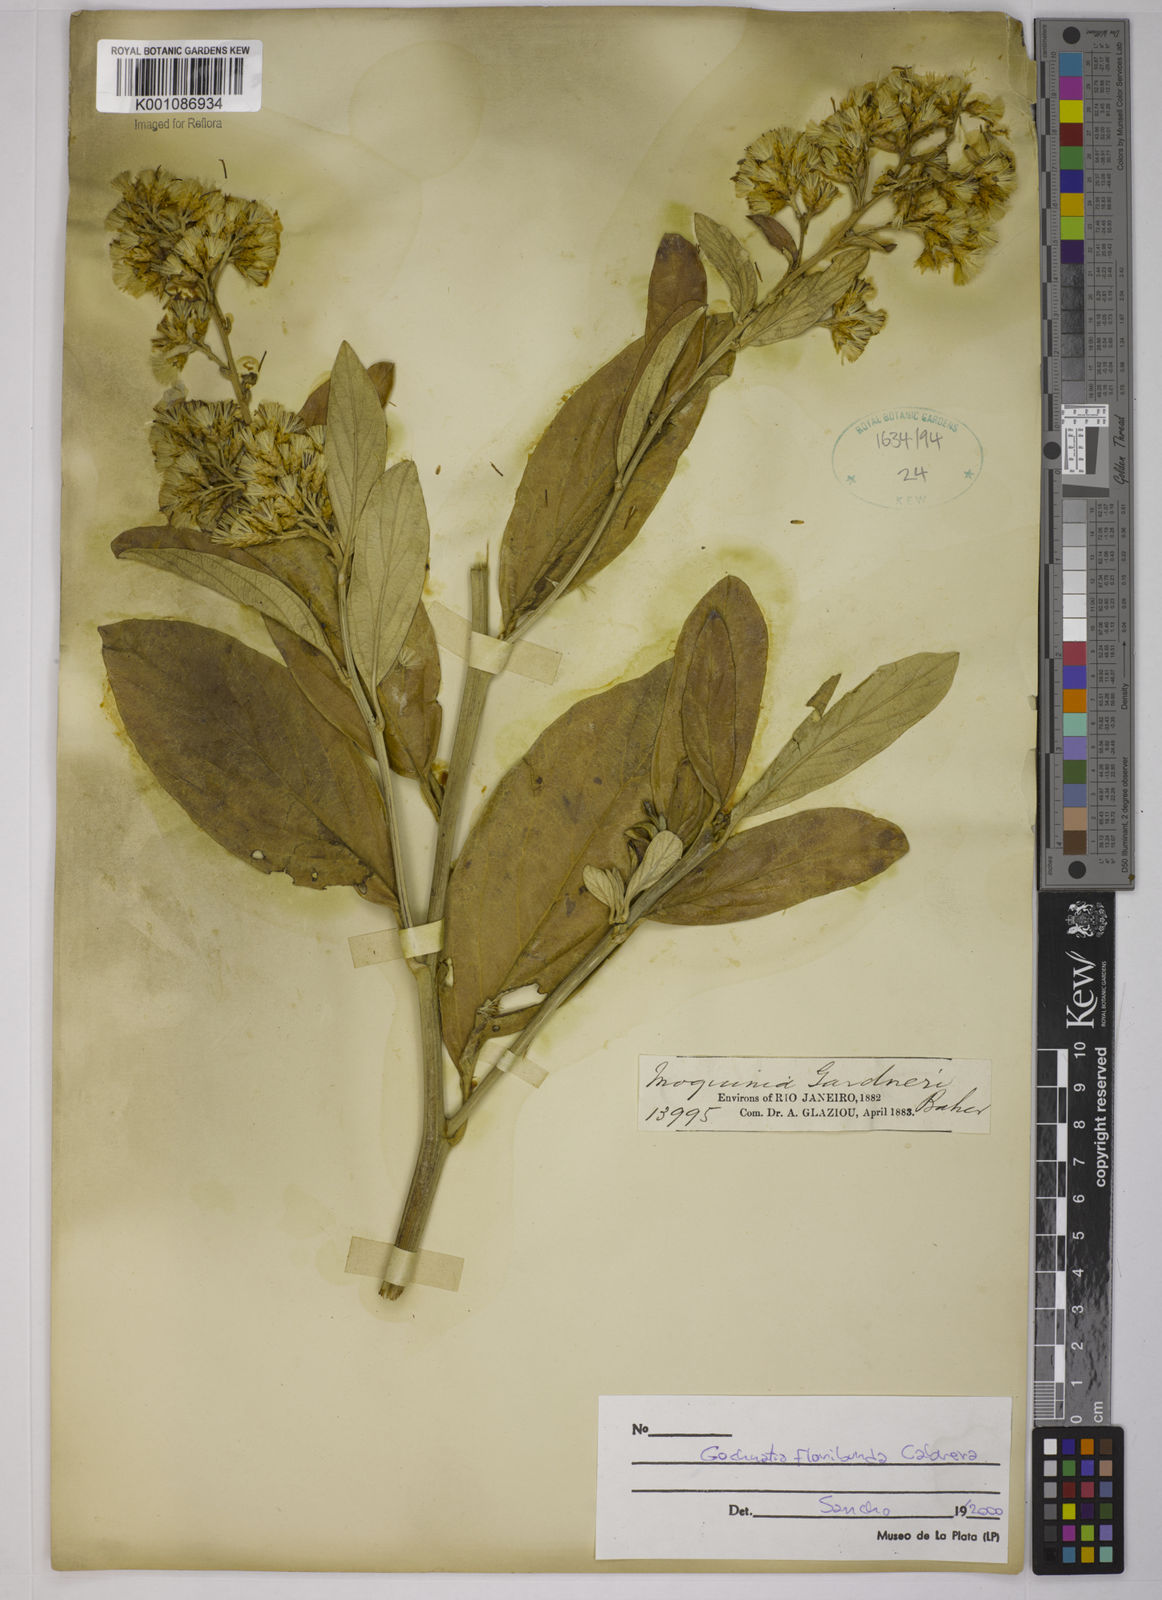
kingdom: Plantae
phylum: Tracheophyta
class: Magnoliopsida
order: Asterales
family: Asteraceae
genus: Moquiniastrum
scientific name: Moquiniastrum floribundum
